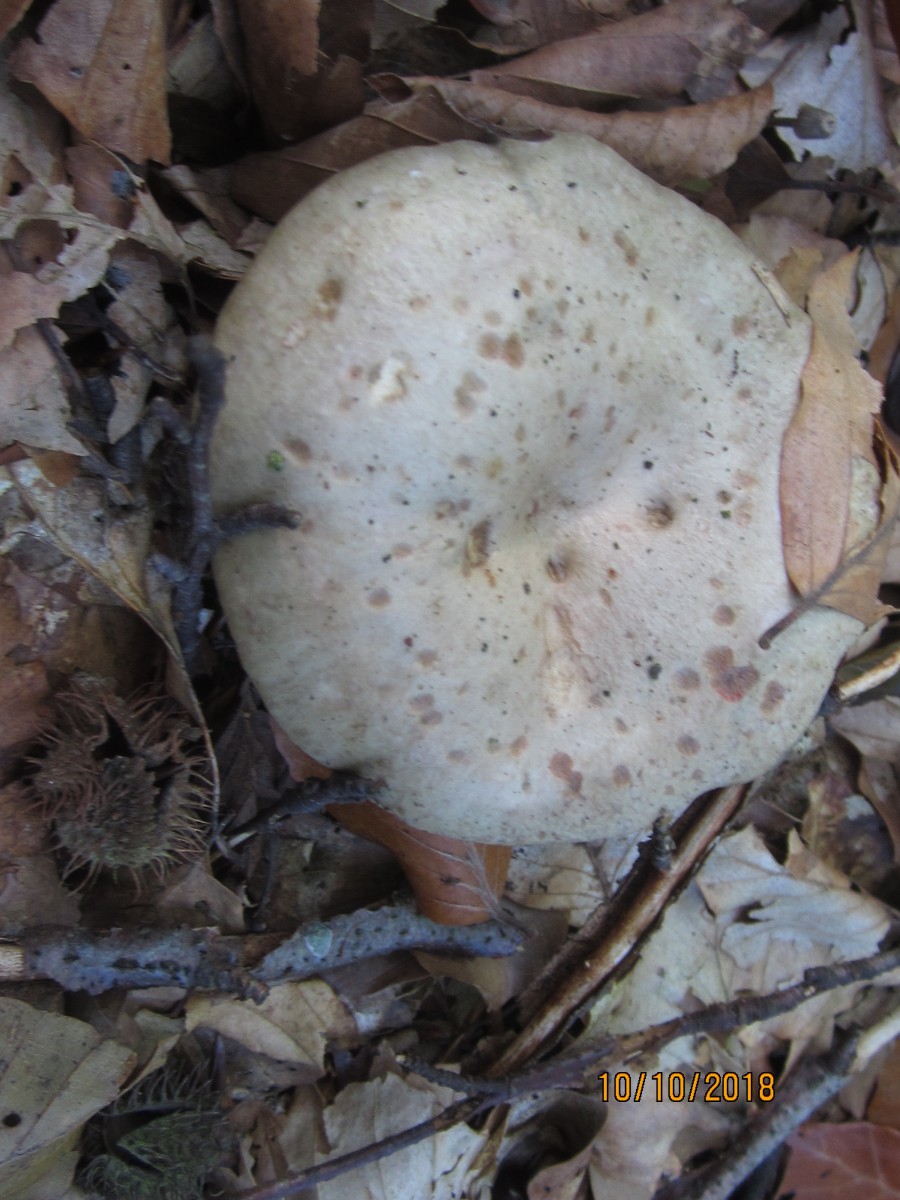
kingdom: Fungi
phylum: Basidiomycota
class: Agaricomycetes
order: Agaricales
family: Omphalotaceae
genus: Rhodocollybia
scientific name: Rhodocollybia maculata
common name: plettet fladhat
